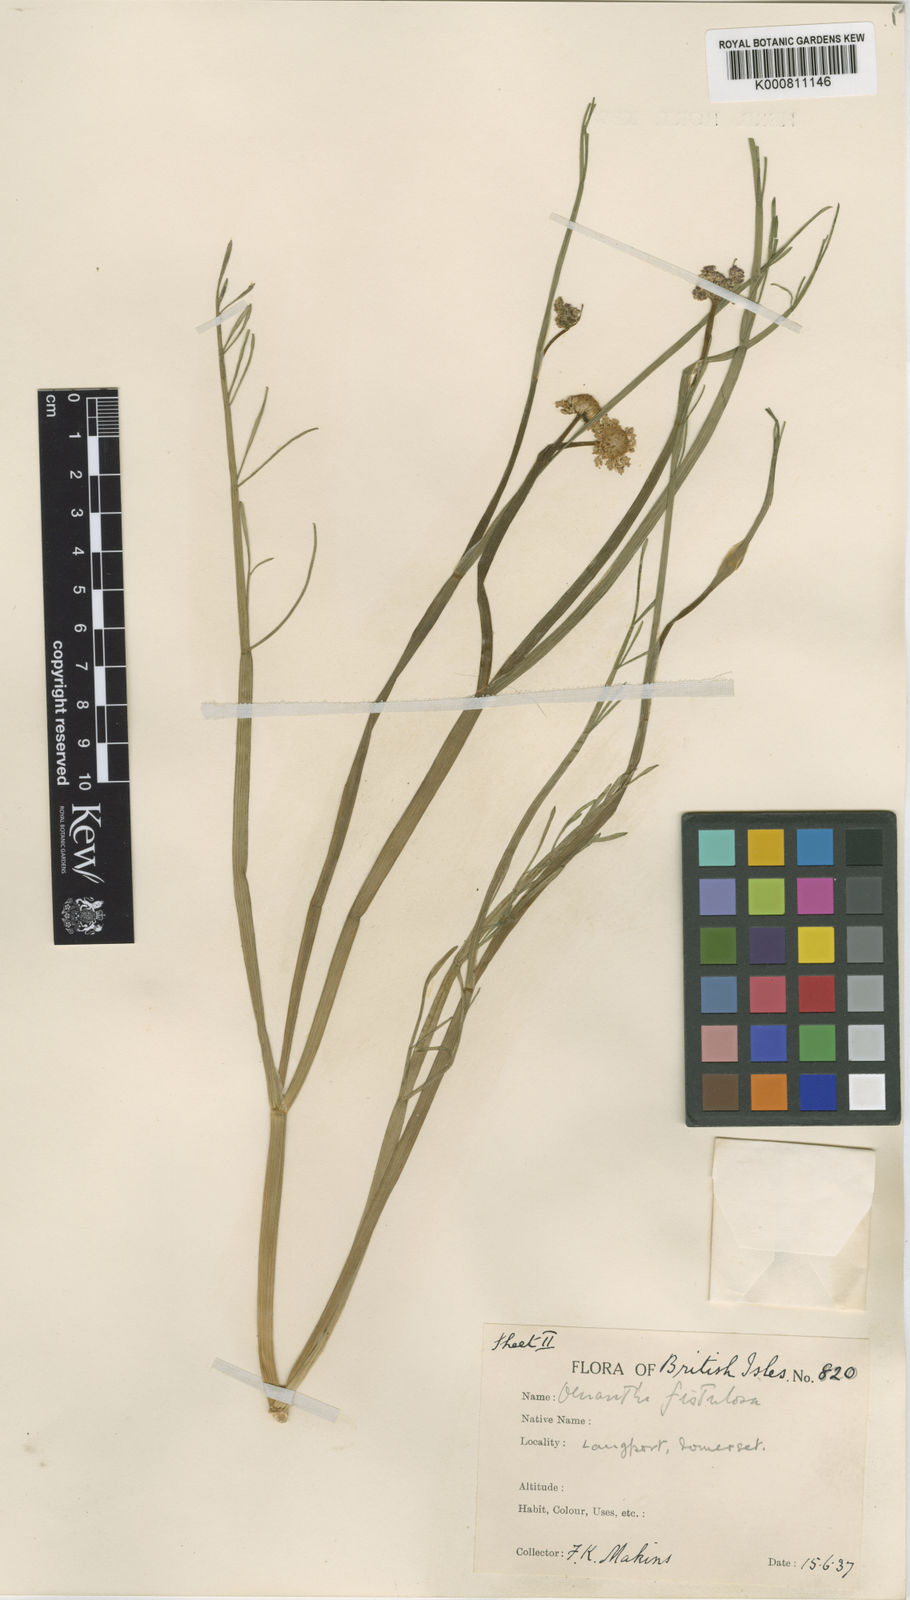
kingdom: Plantae
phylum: Tracheophyta
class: Magnoliopsida
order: Apiales
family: Apiaceae
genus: Oenanthe
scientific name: Oenanthe fistulosa
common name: Tubular water-dropwort
